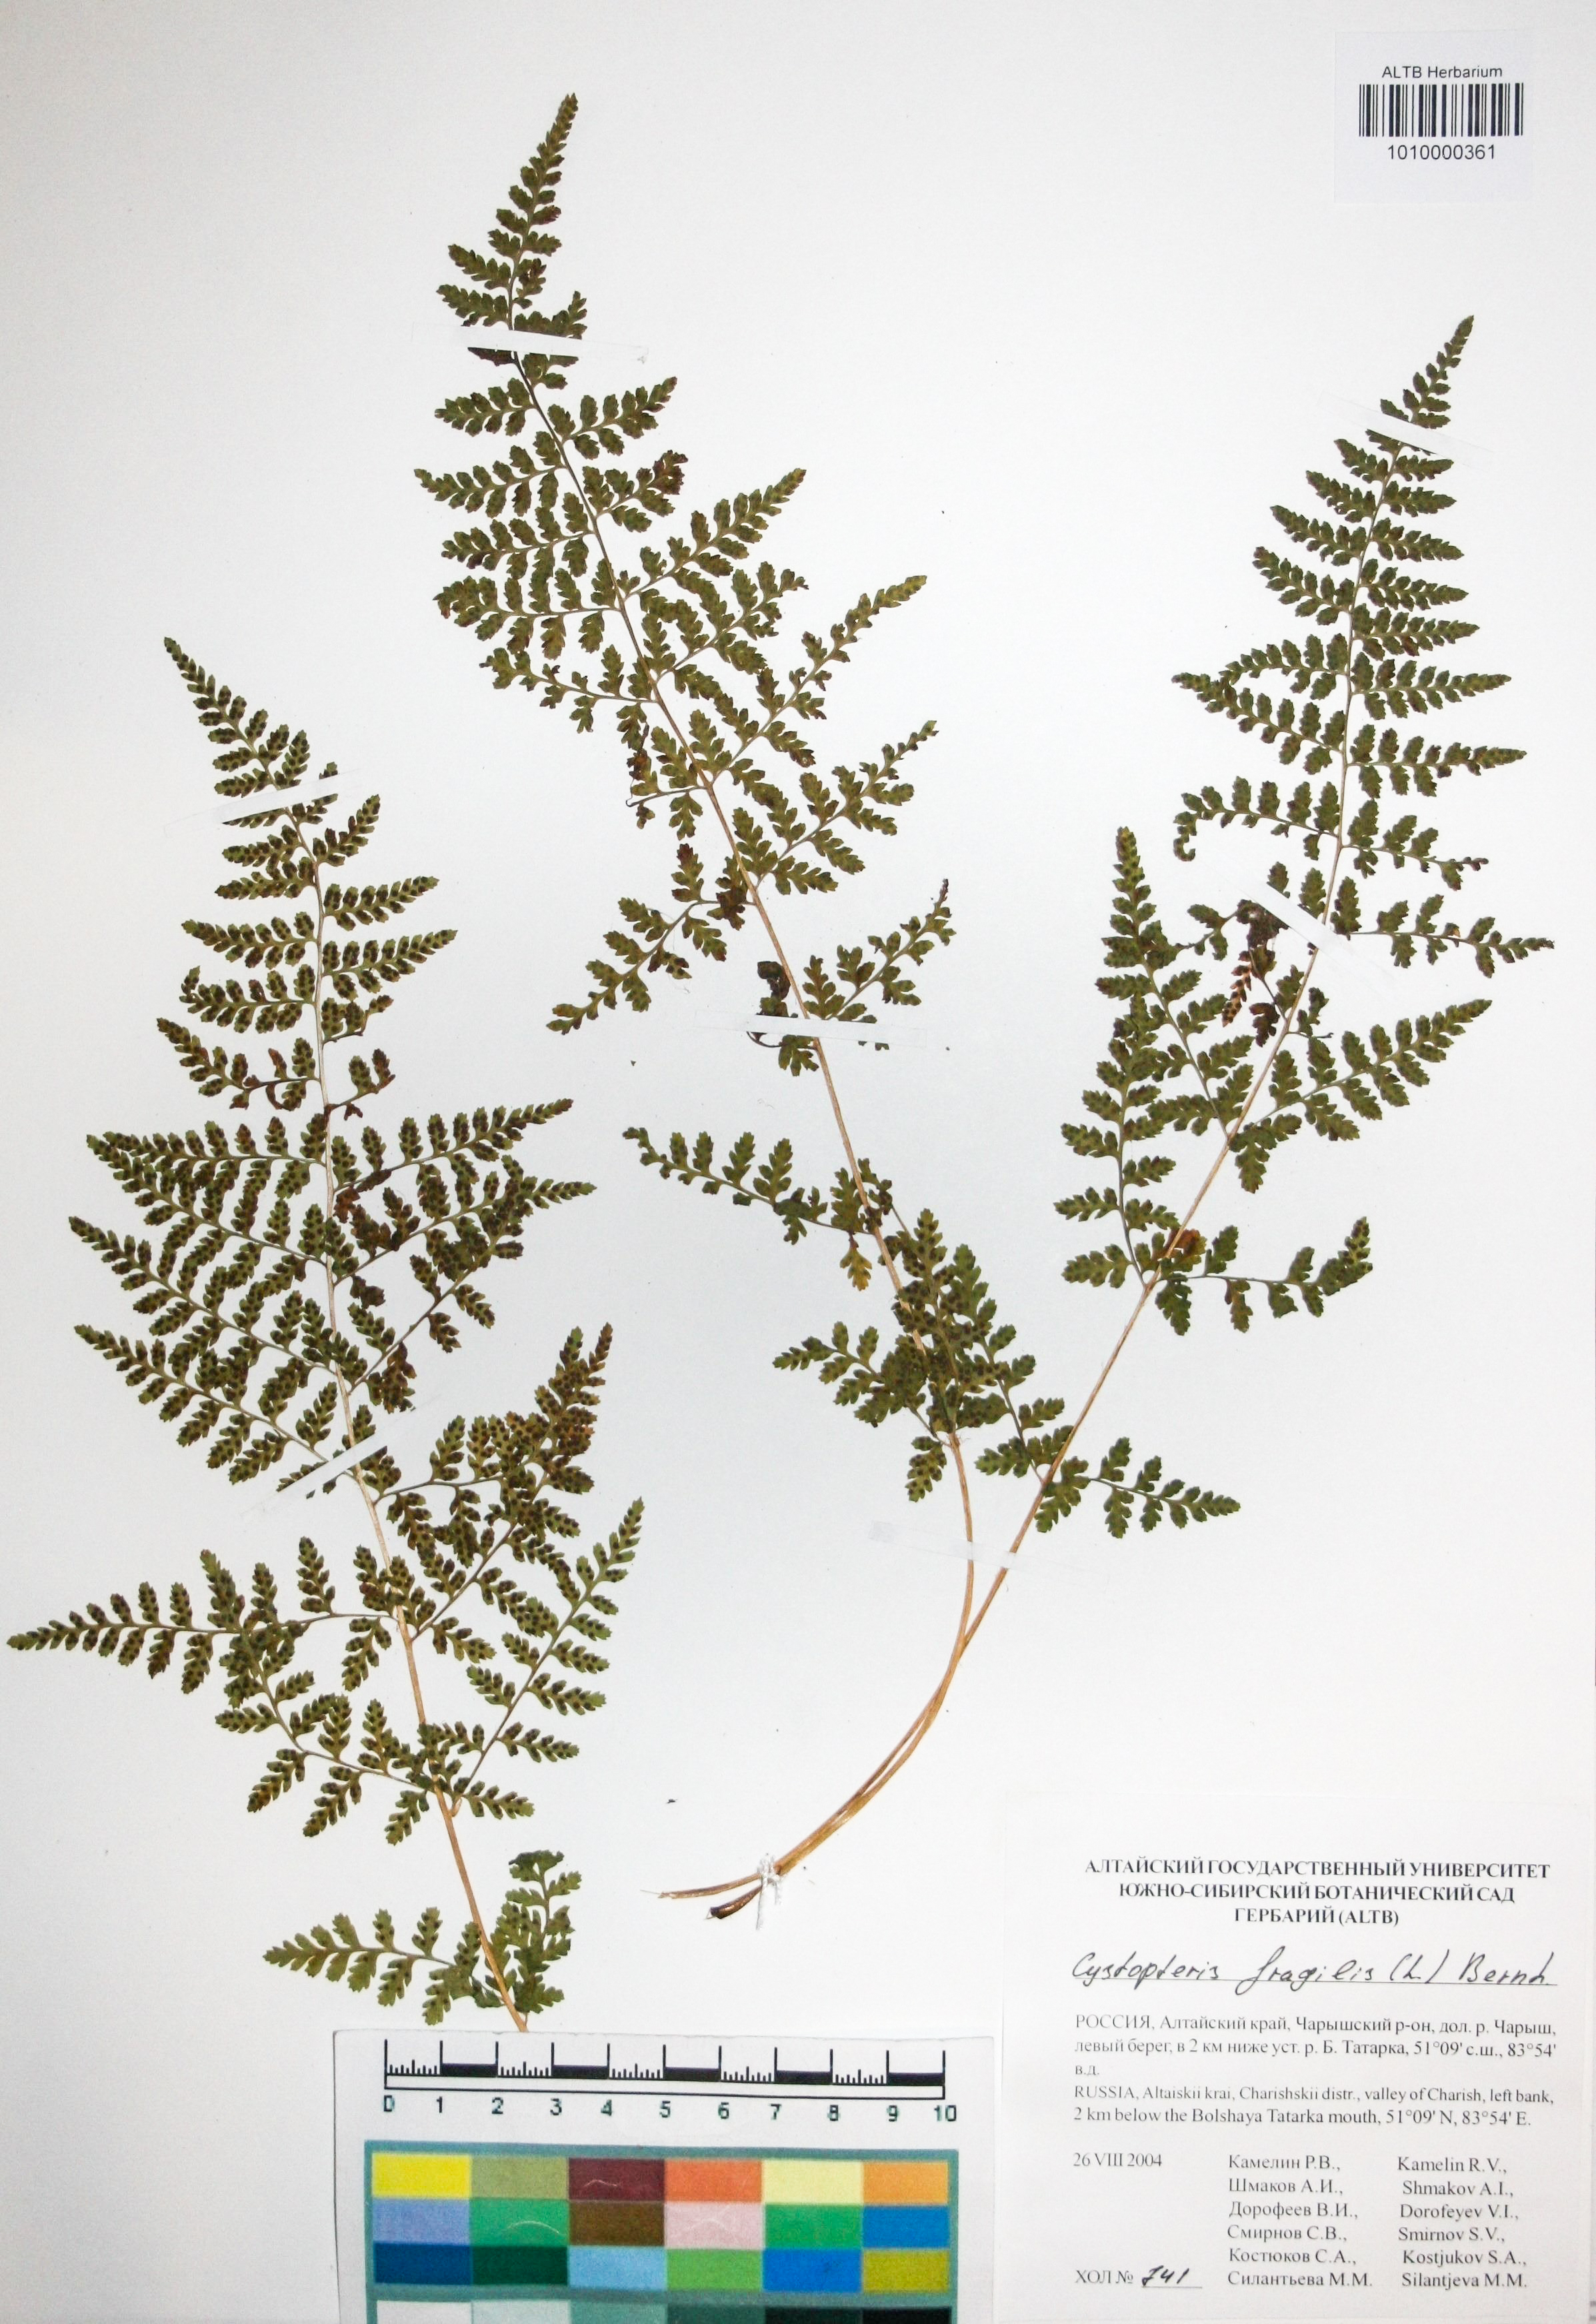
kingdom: Plantae
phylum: Tracheophyta
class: Polypodiopsida
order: Polypodiales
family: Cystopteridaceae
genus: Cystopteris
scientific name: Cystopteris fragilis
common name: Brittle bladder fern
